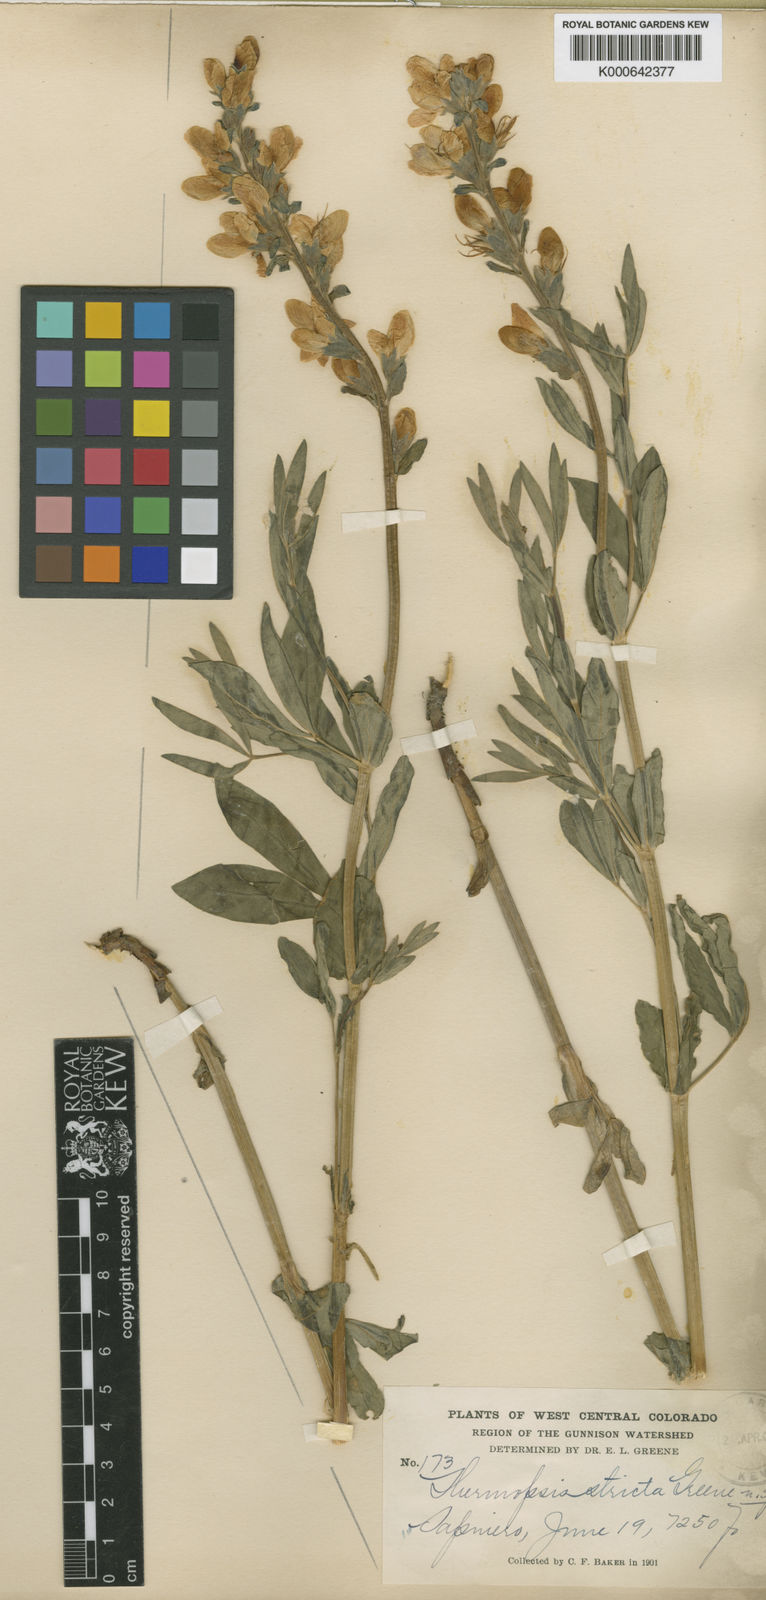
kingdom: Plantae
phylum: Tracheophyta
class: Magnoliopsida
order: Fabales
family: Fabaceae
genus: Thermopsis
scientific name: Thermopsis montana
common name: False lupin
